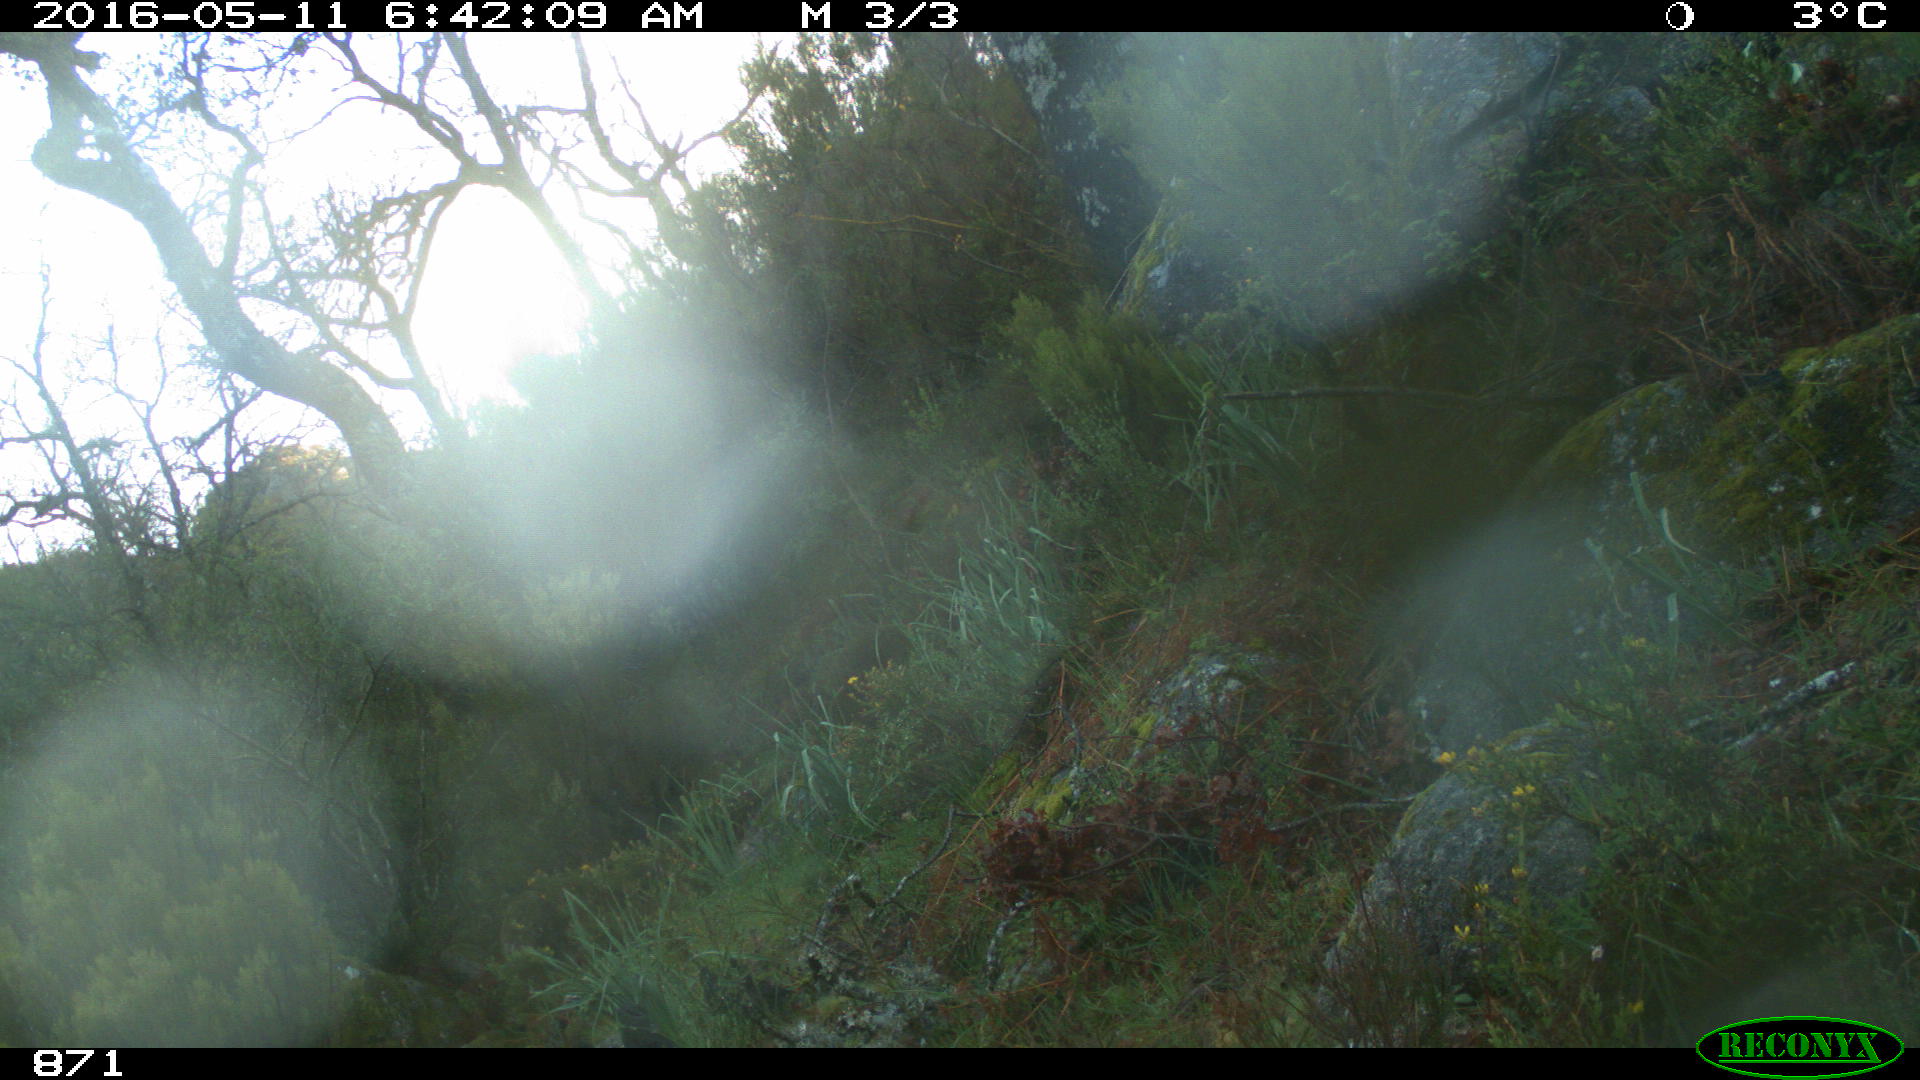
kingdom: Animalia
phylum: Chordata
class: Mammalia
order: Artiodactyla
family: Cervidae
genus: Capreolus
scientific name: Capreolus capreolus
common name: Western roe deer
